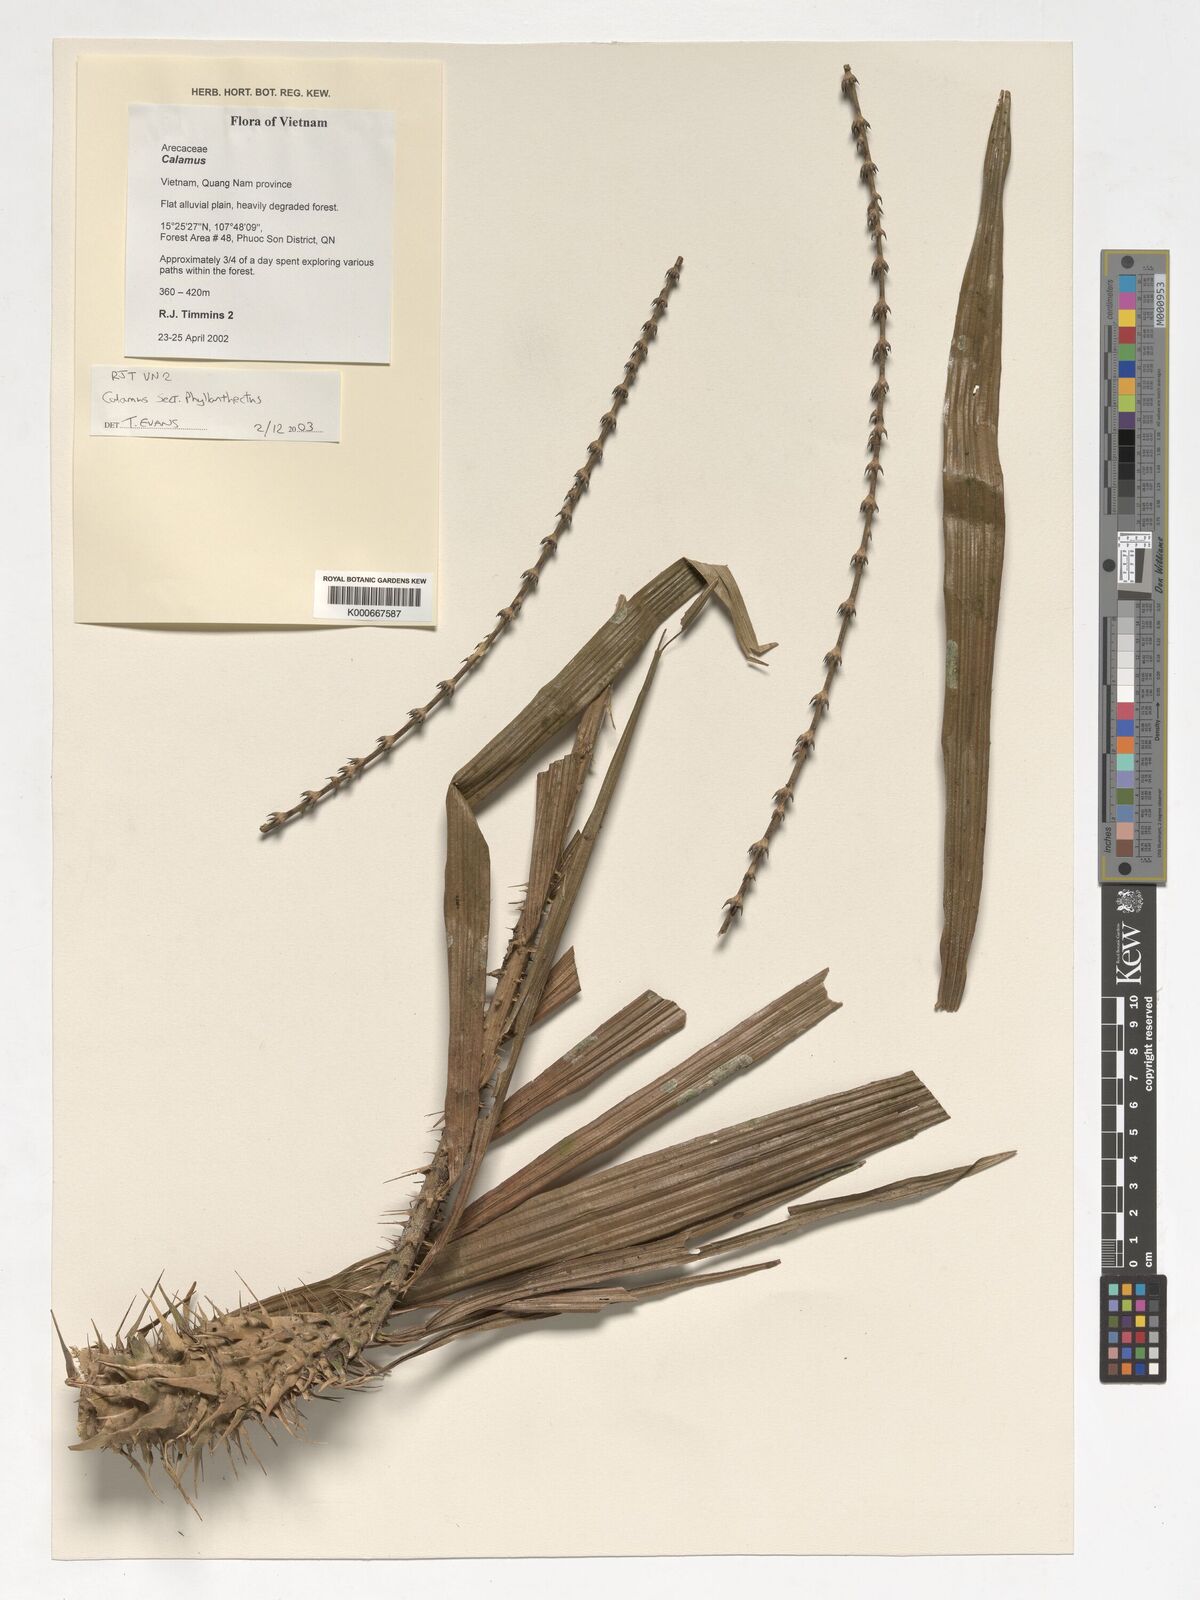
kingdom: Plantae
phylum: Tracheophyta
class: Liliopsida
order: Arecales
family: Arecaceae
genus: Calamus
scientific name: Calamus
